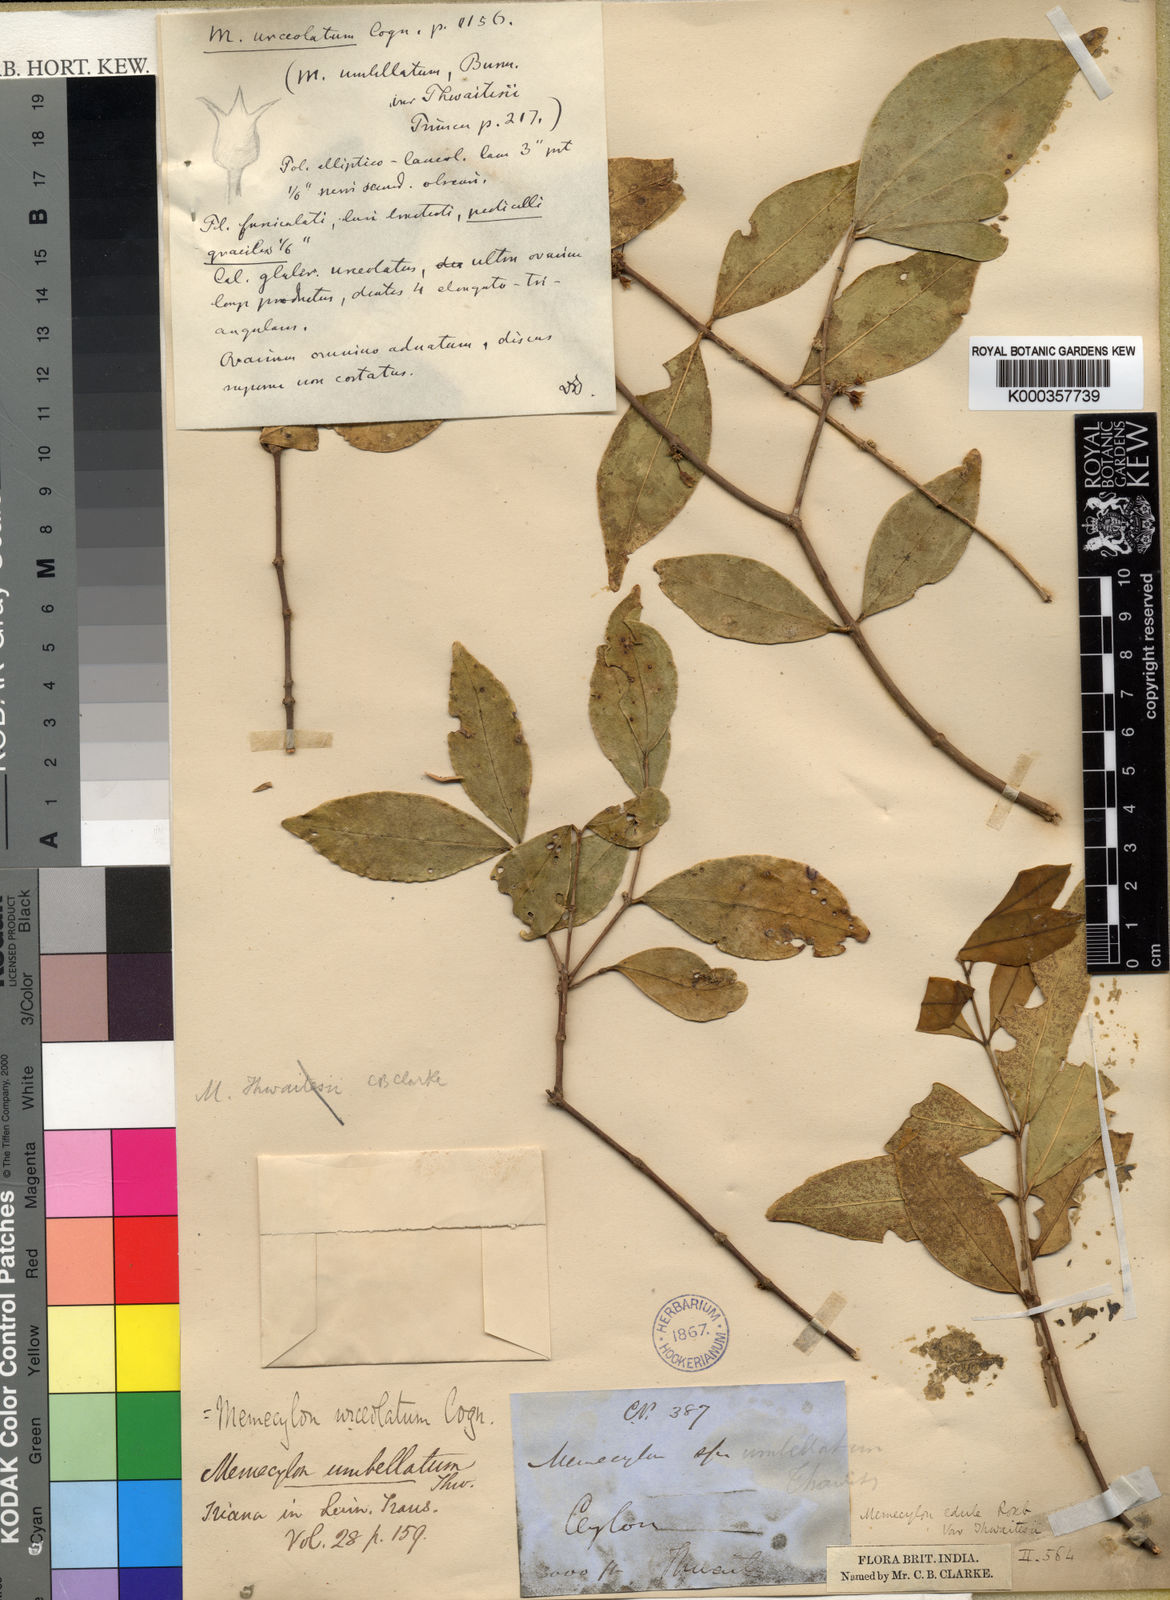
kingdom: Plantae
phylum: Tracheophyta
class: Magnoliopsida
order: Myrtales
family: Melastomataceae
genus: Memecylon
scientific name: Memecylon urceolatum
